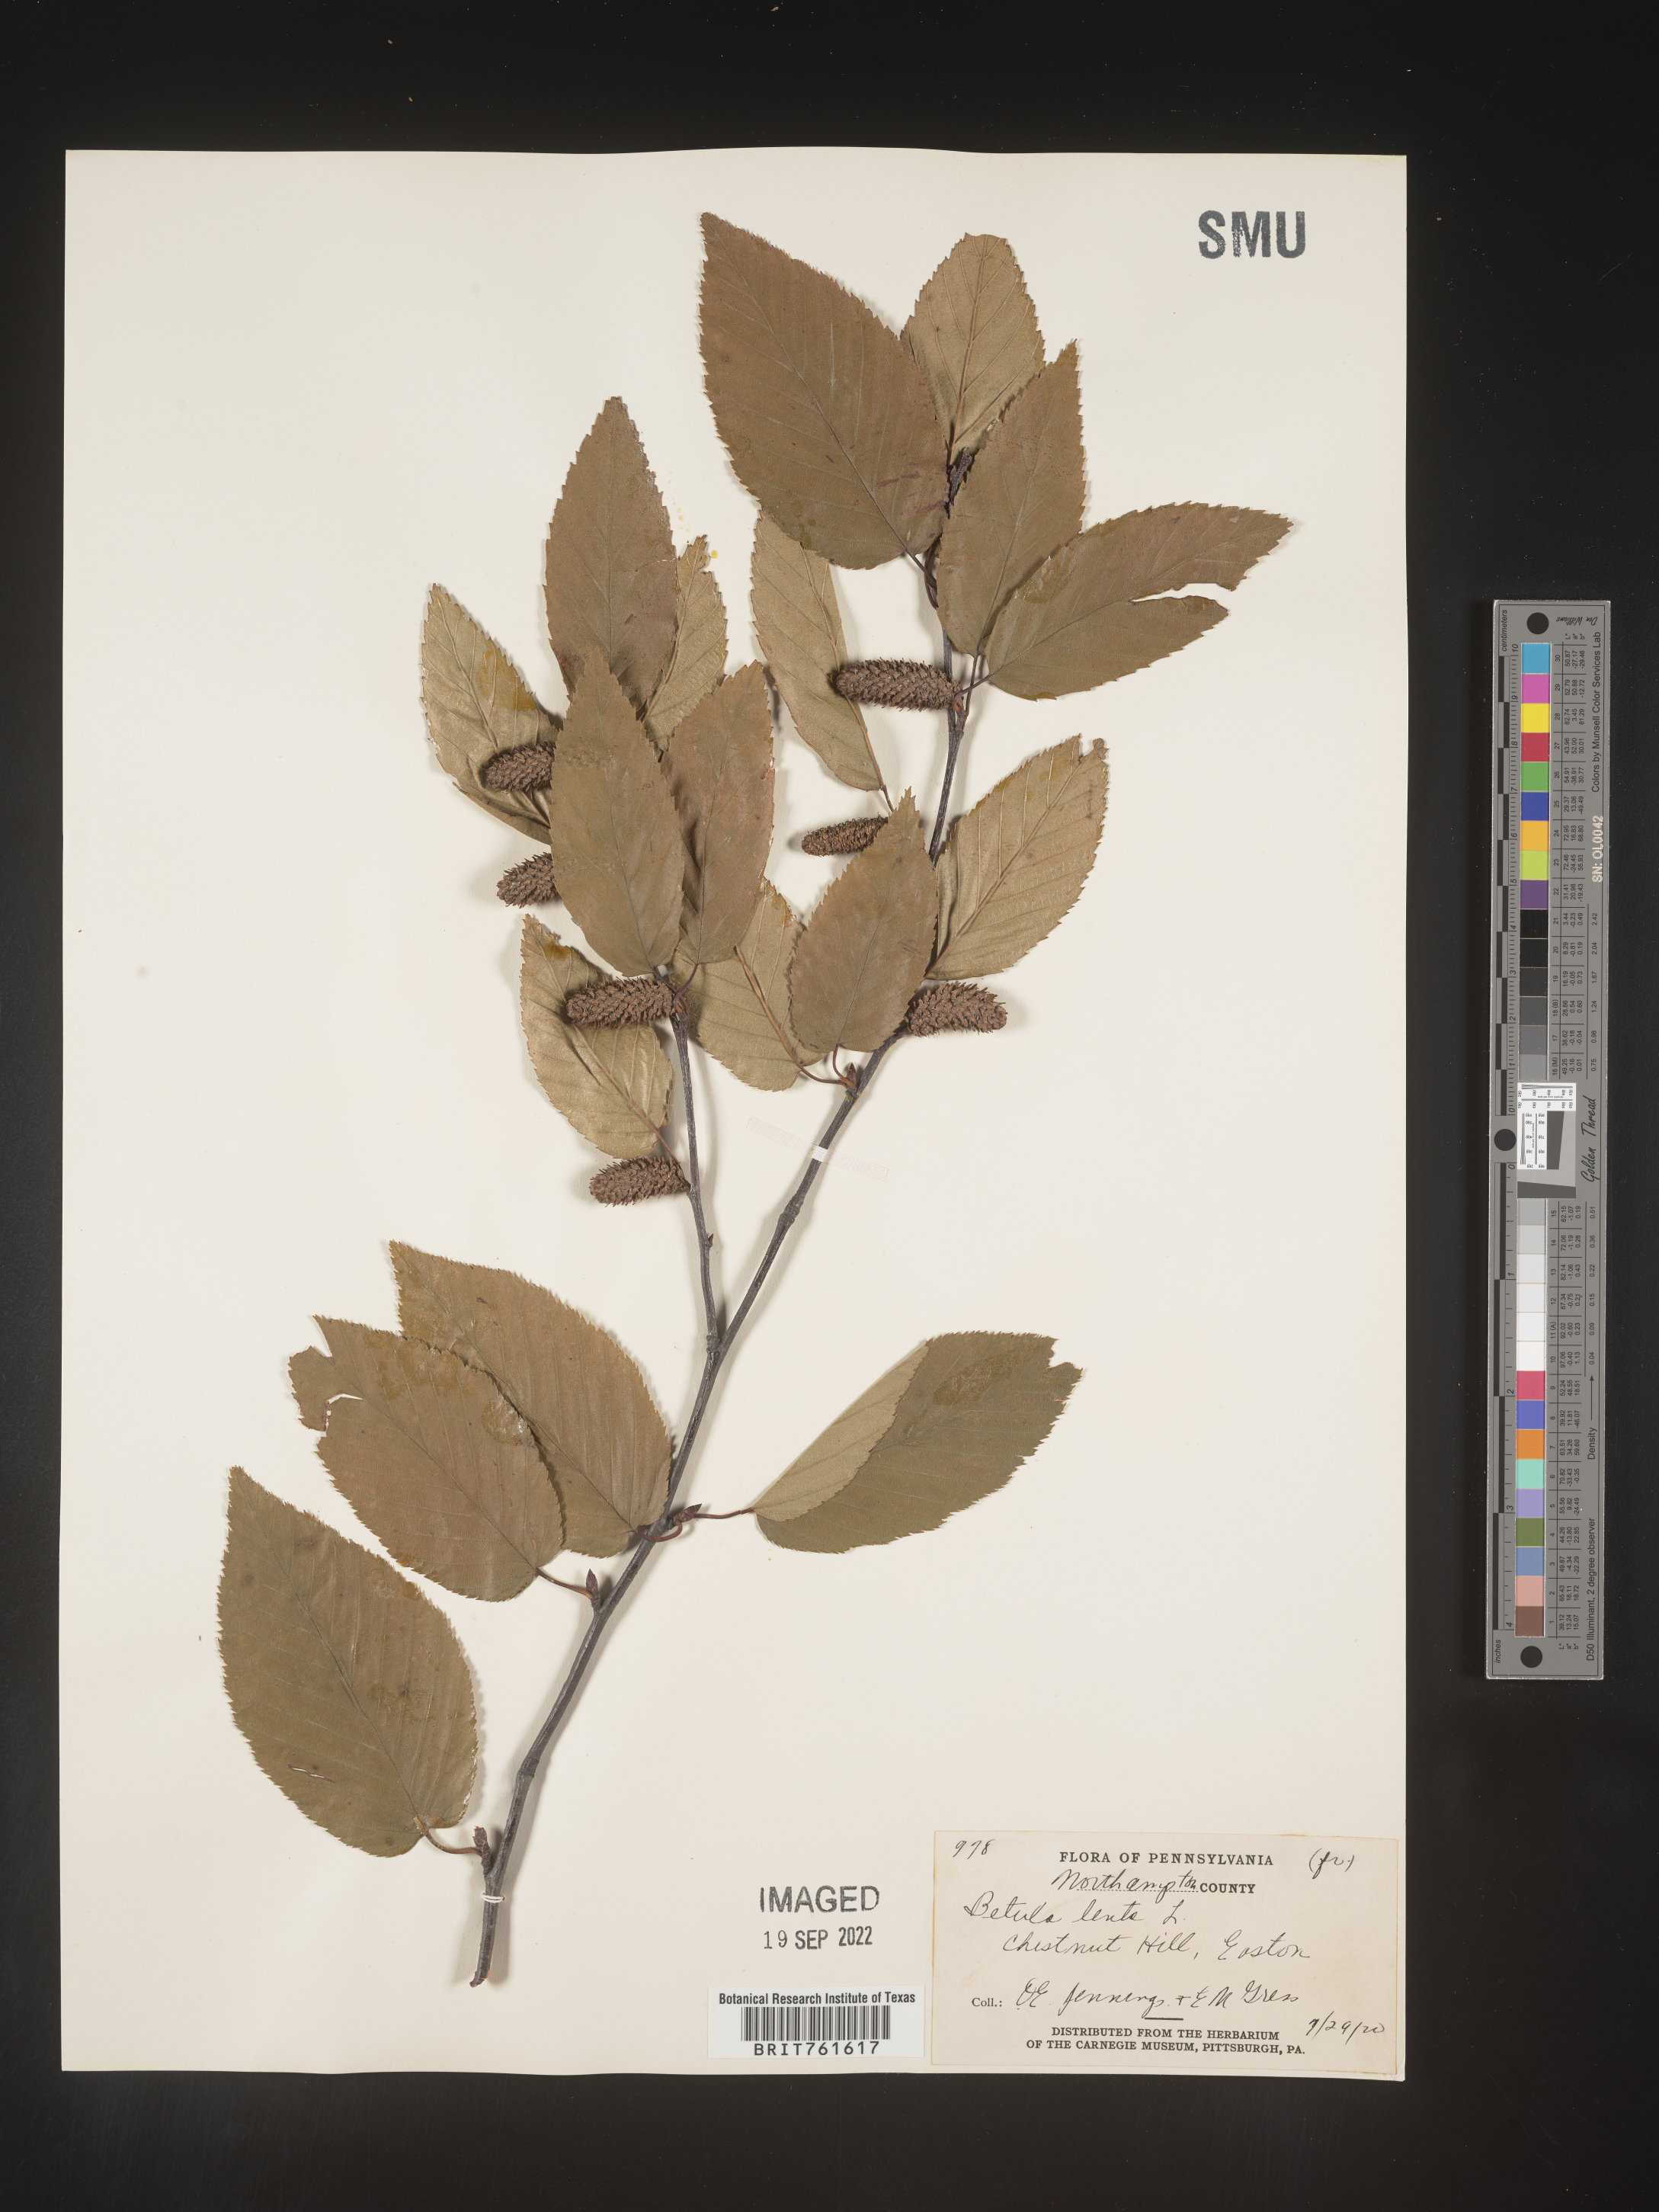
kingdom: Plantae
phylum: Tracheophyta
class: Magnoliopsida
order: Fagales
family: Betulaceae
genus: Betula
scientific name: Betula lenta
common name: Black birch
